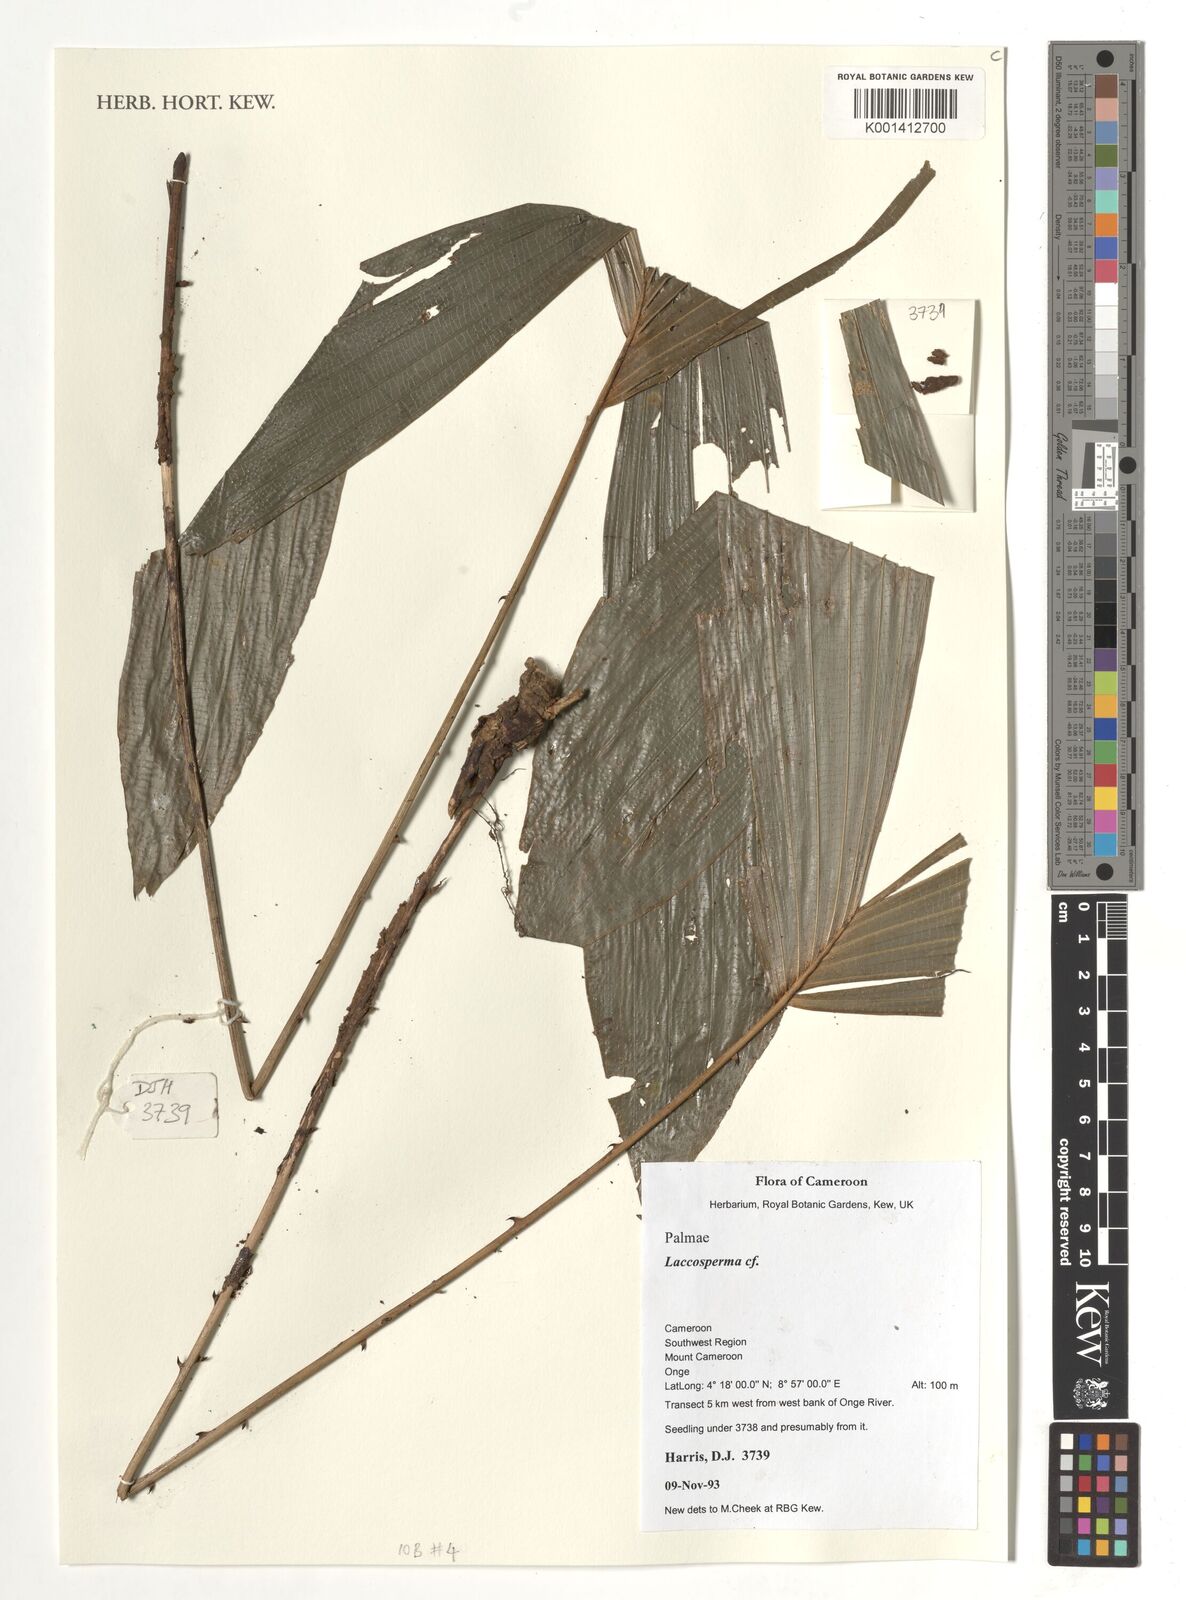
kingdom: Plantae
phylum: Tracheophyta
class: Liliopsida
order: Arecales
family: Arecaceae
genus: Laccosperma
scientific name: Laccosperma
